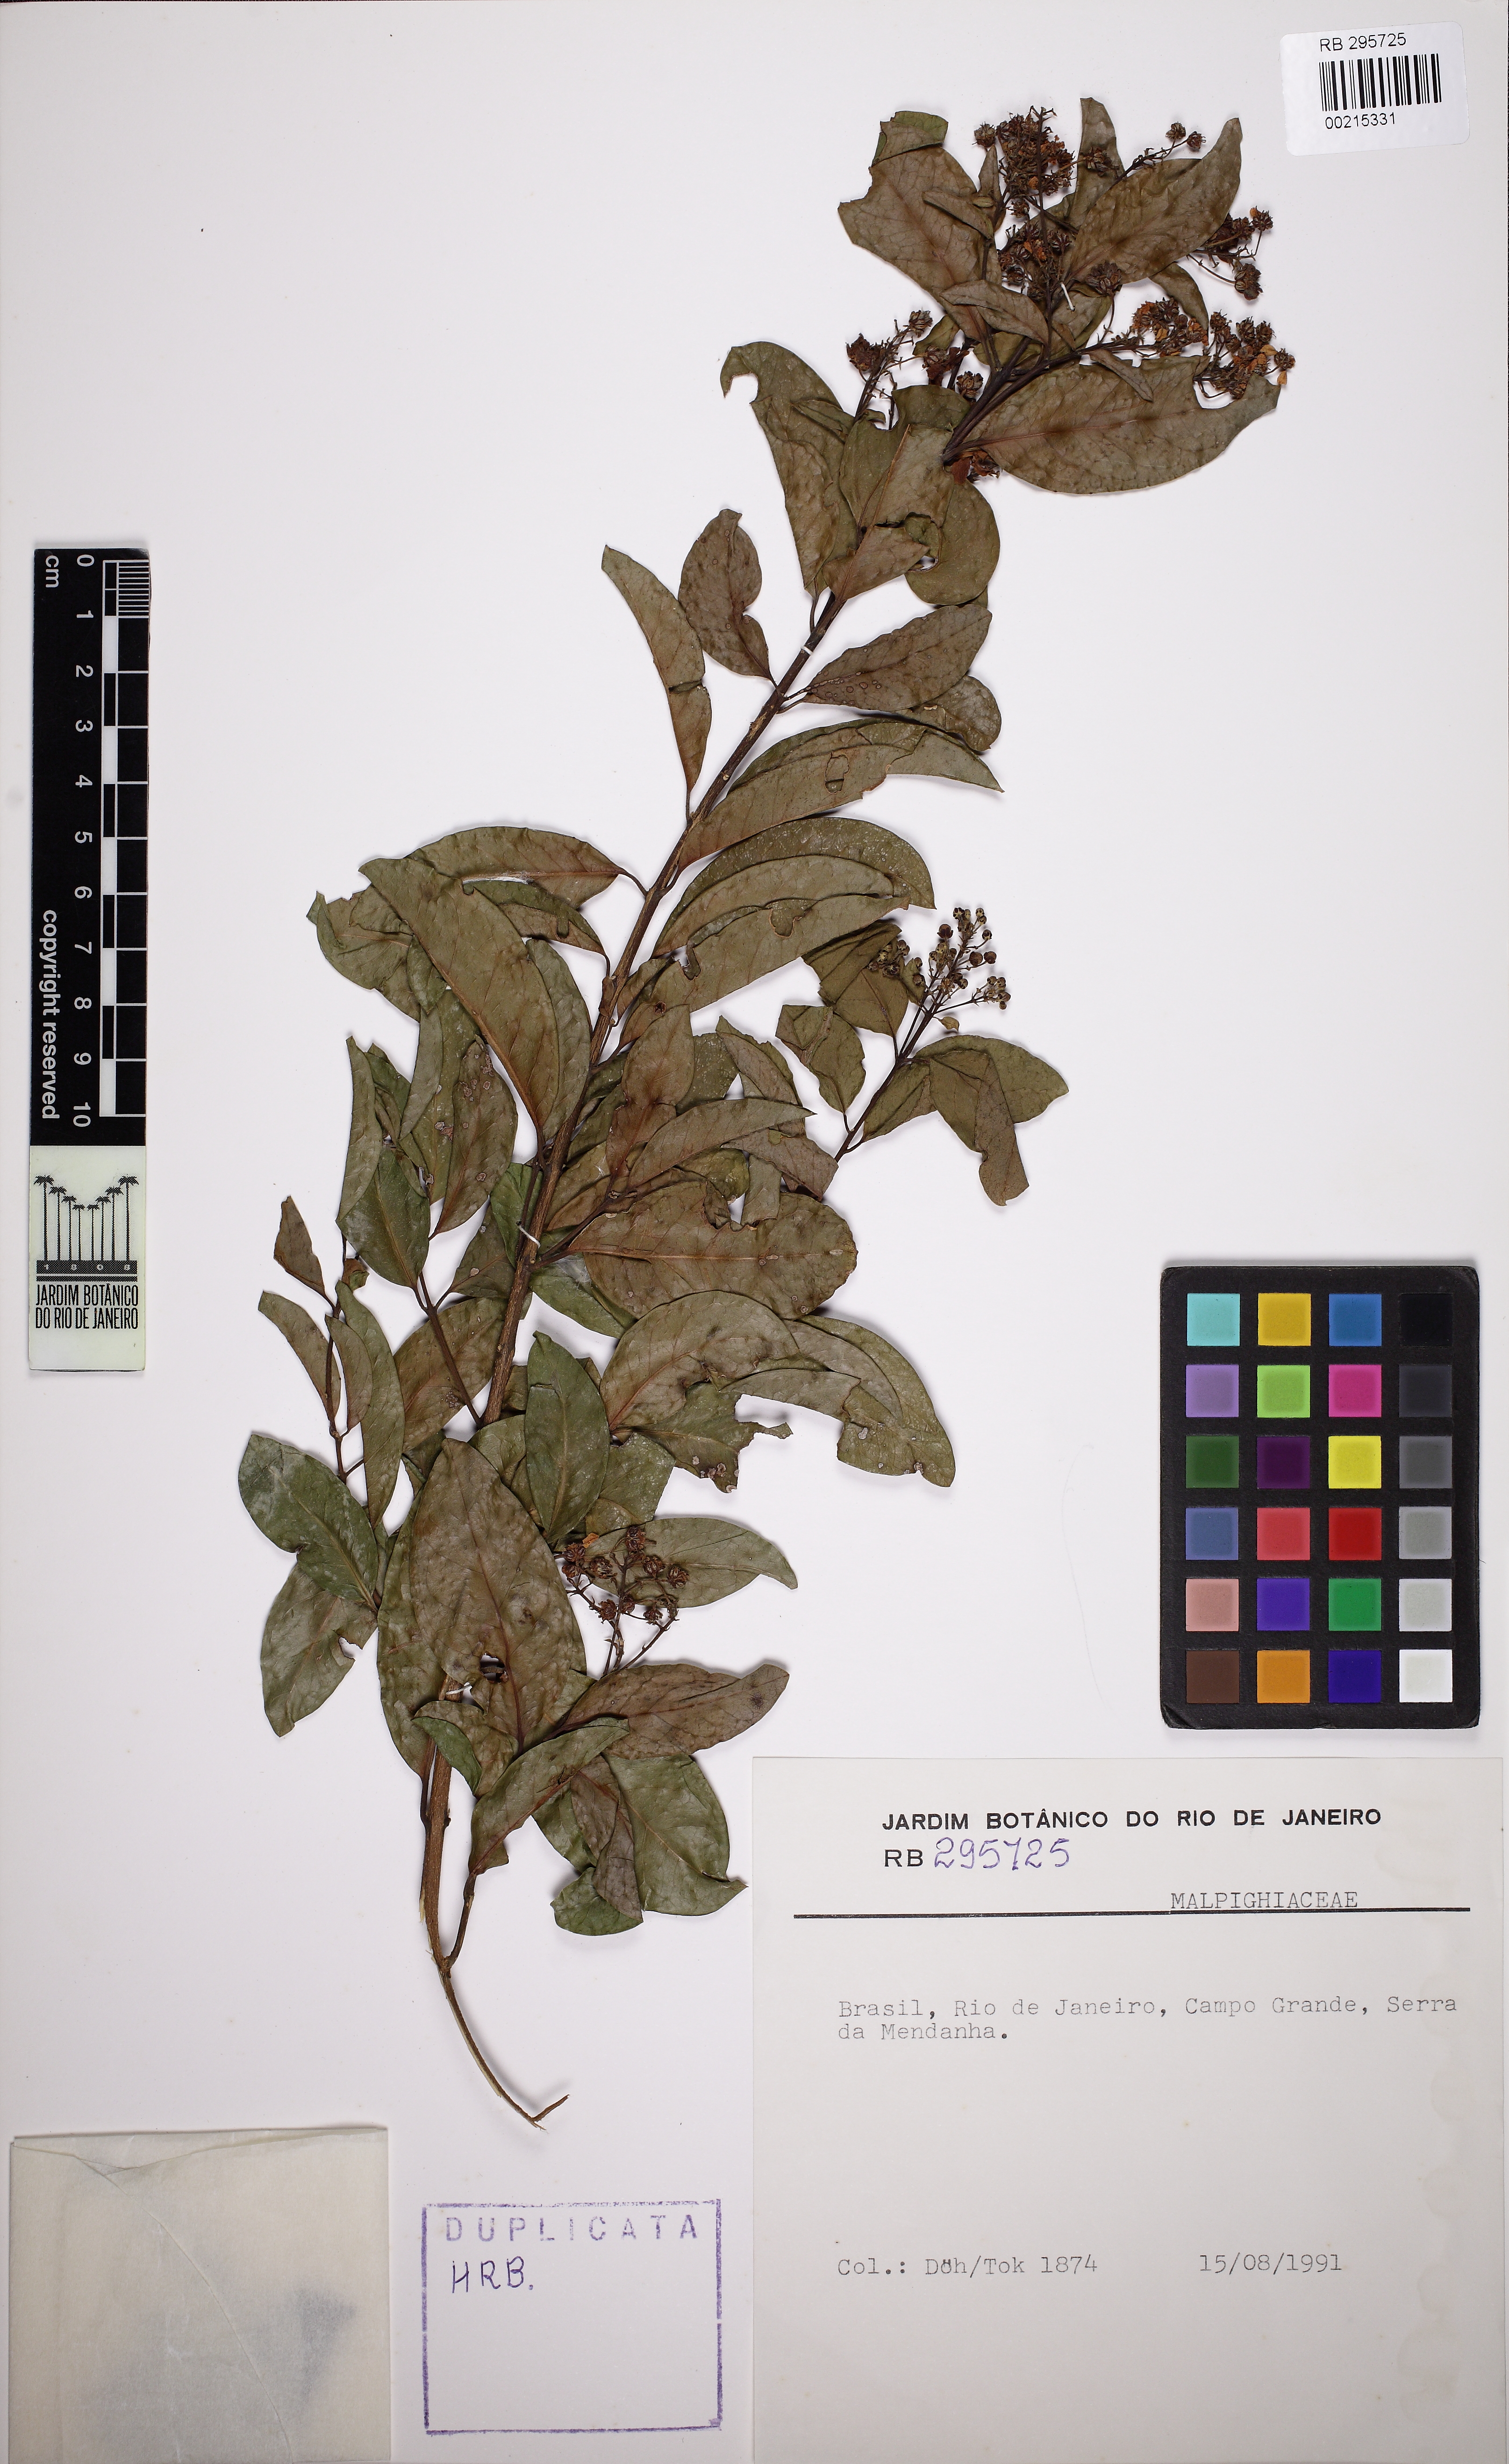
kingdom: Plantae
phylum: Tracheophyta
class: Magnoliopsida
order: Malpighiales
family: Malpighiaceae
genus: Niedenzuella
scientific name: Niedenzuella
